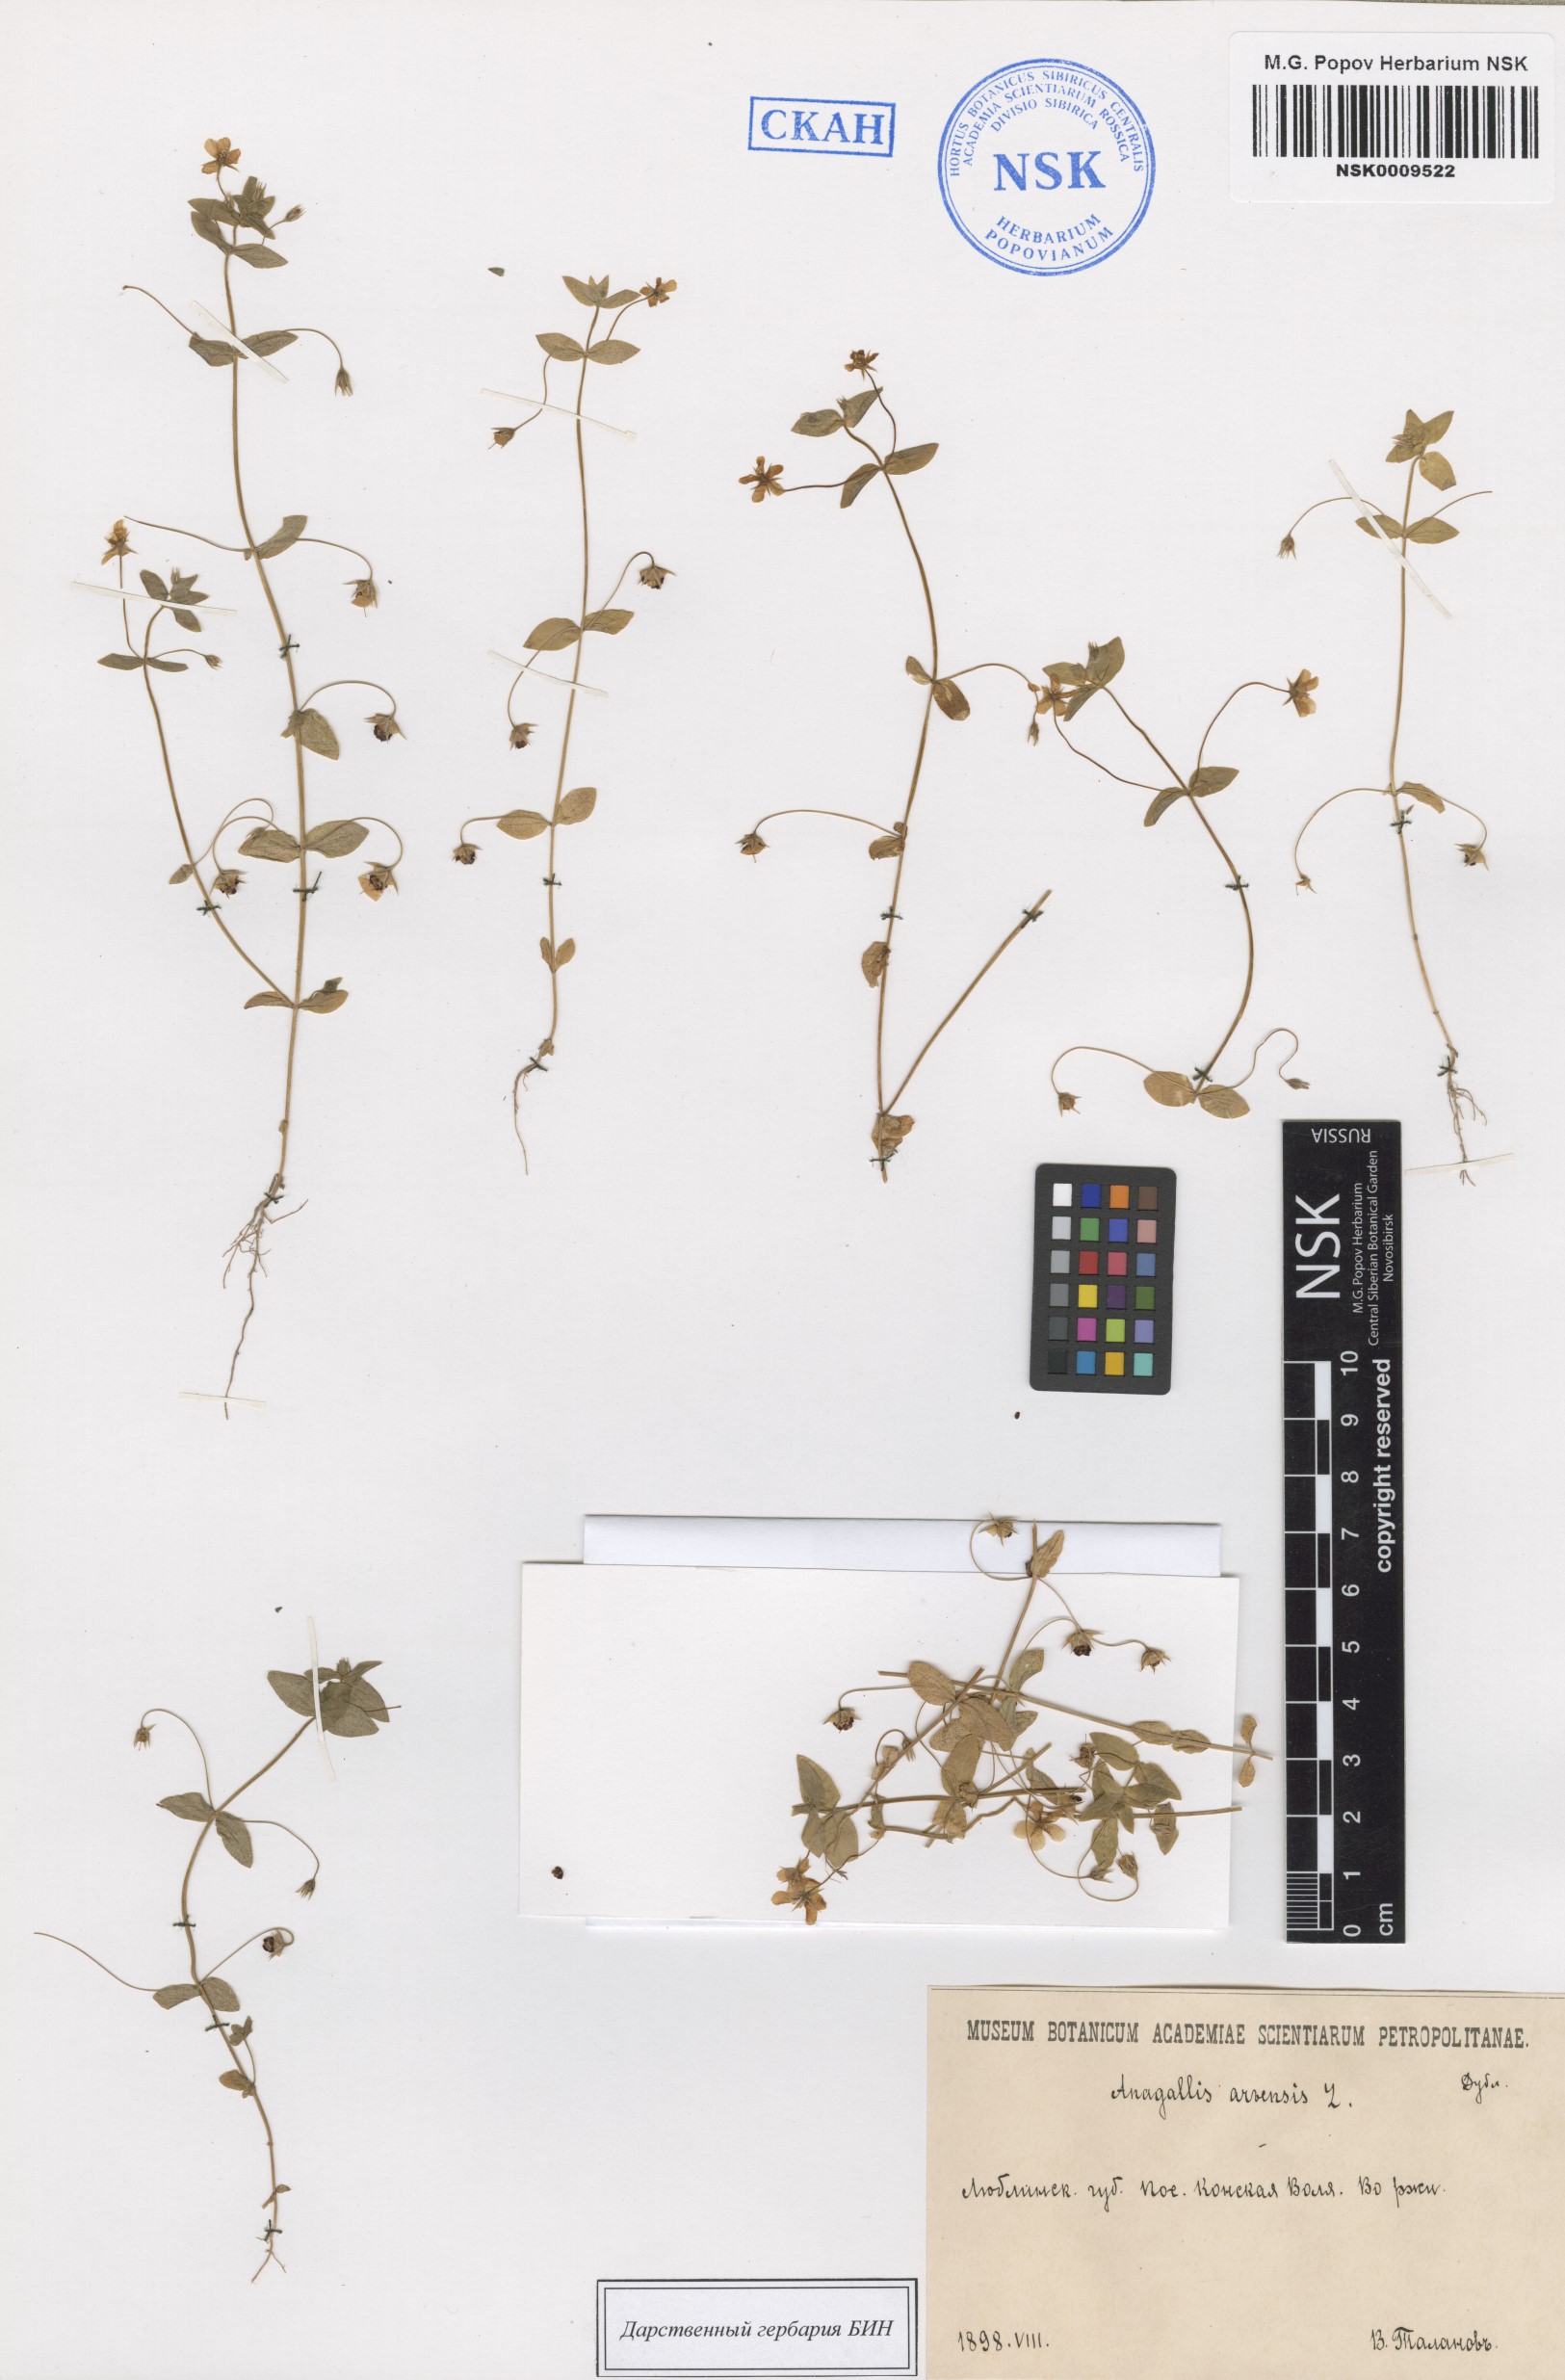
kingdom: Plantae
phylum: Tracheophyta
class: Magnoliopsida
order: Ericales
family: Primulaceae
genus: Lysimachia
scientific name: Lysimachia arvensis
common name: Scarlet pimpernel
